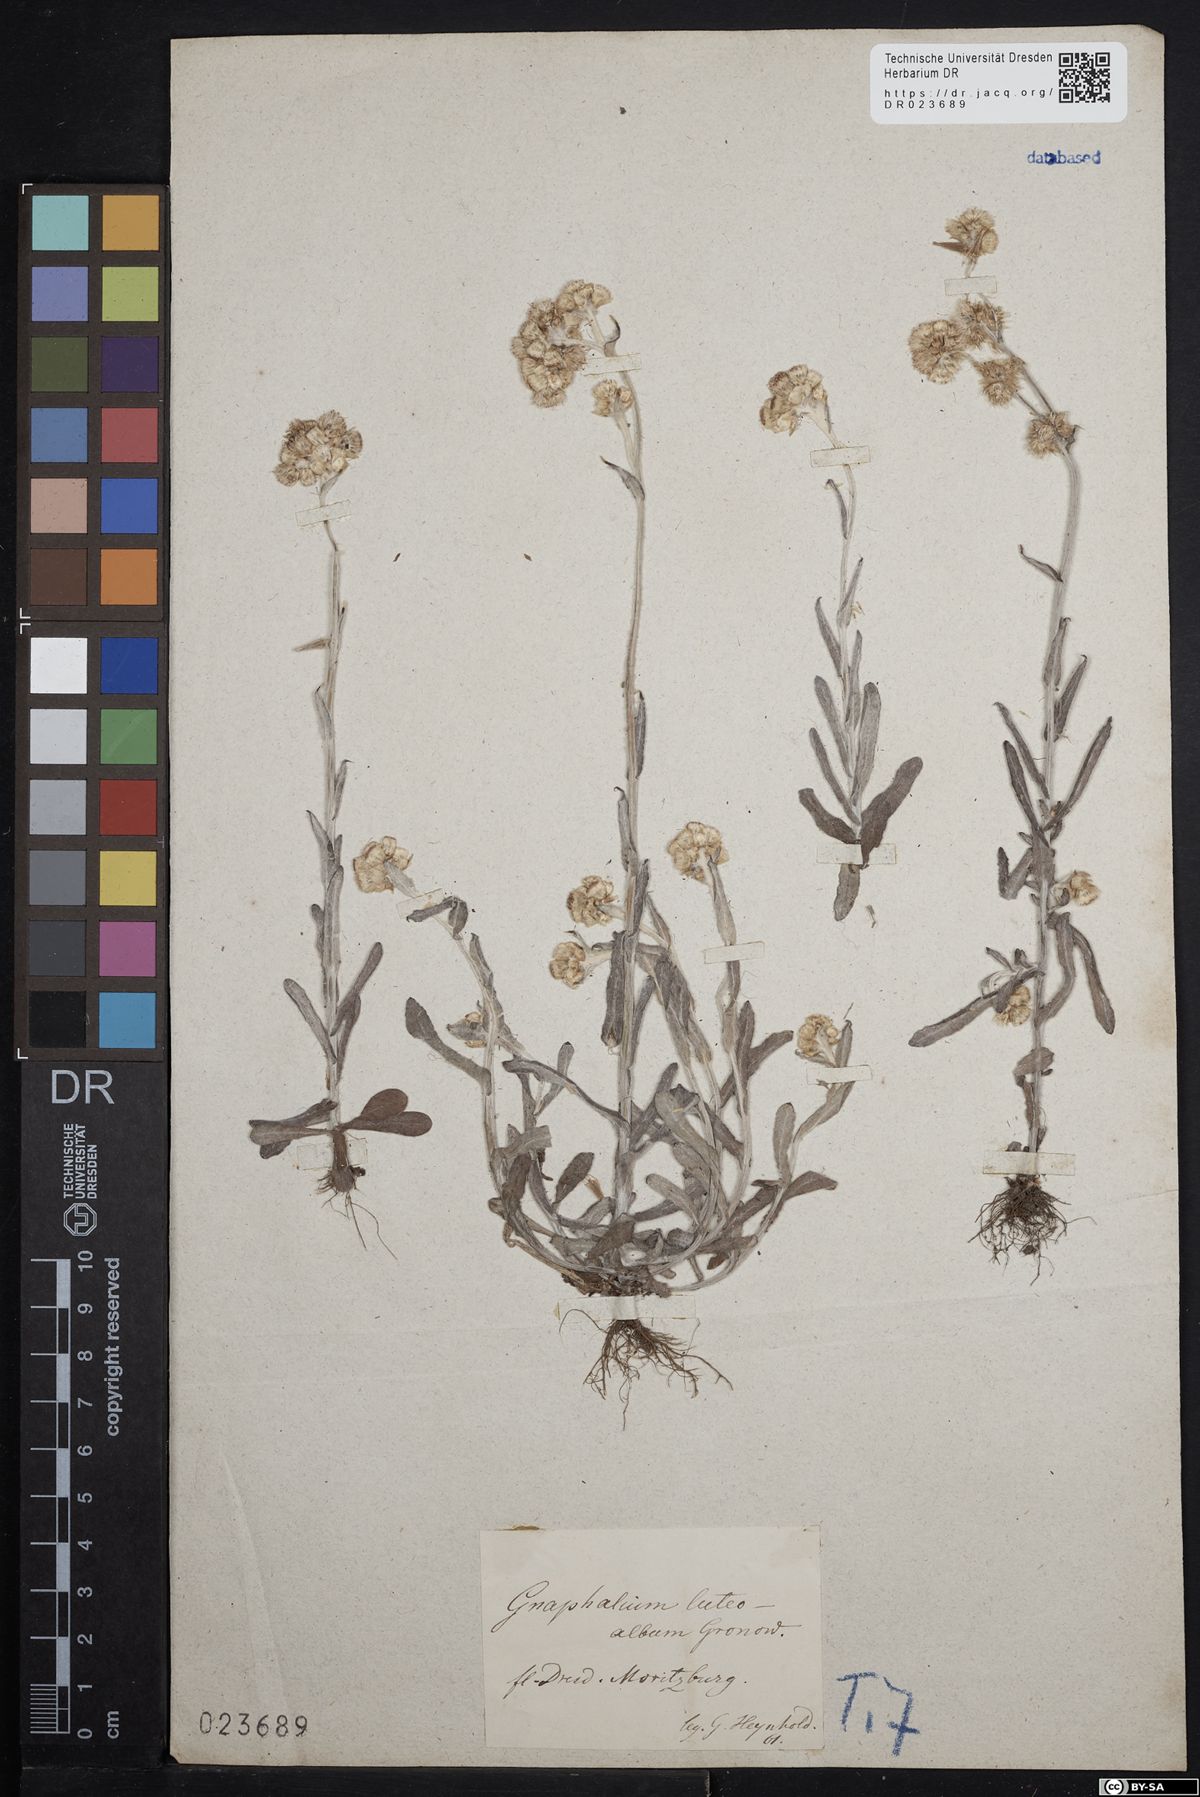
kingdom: Plantae
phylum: Tracheophyta
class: Magnoliopsida
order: Asterales
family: Asteraceae
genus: Helichrysum
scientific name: Helichrysum luteoalbum
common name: Daisy
